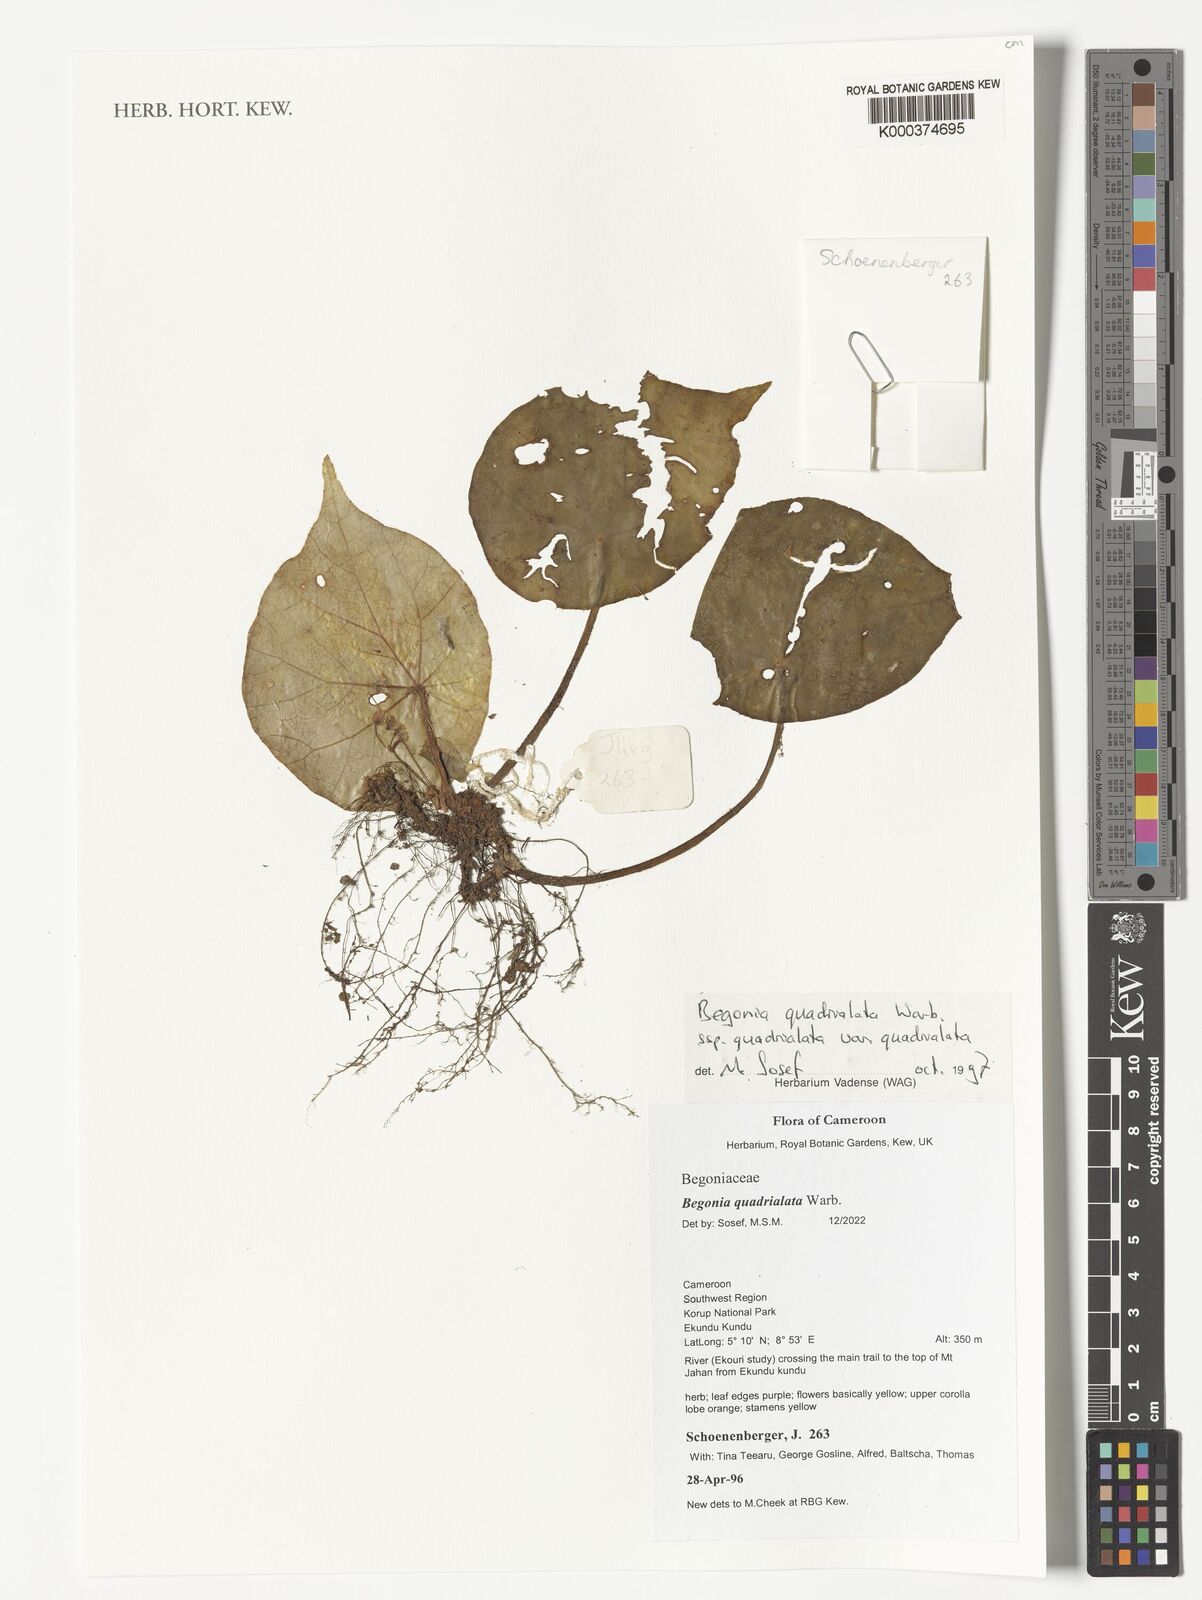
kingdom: Plantae
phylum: Tracheophyta
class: Magnoliopsida
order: Cucurbitales
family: Begoniaceae
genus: Begonia
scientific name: Begonia quadrialata
